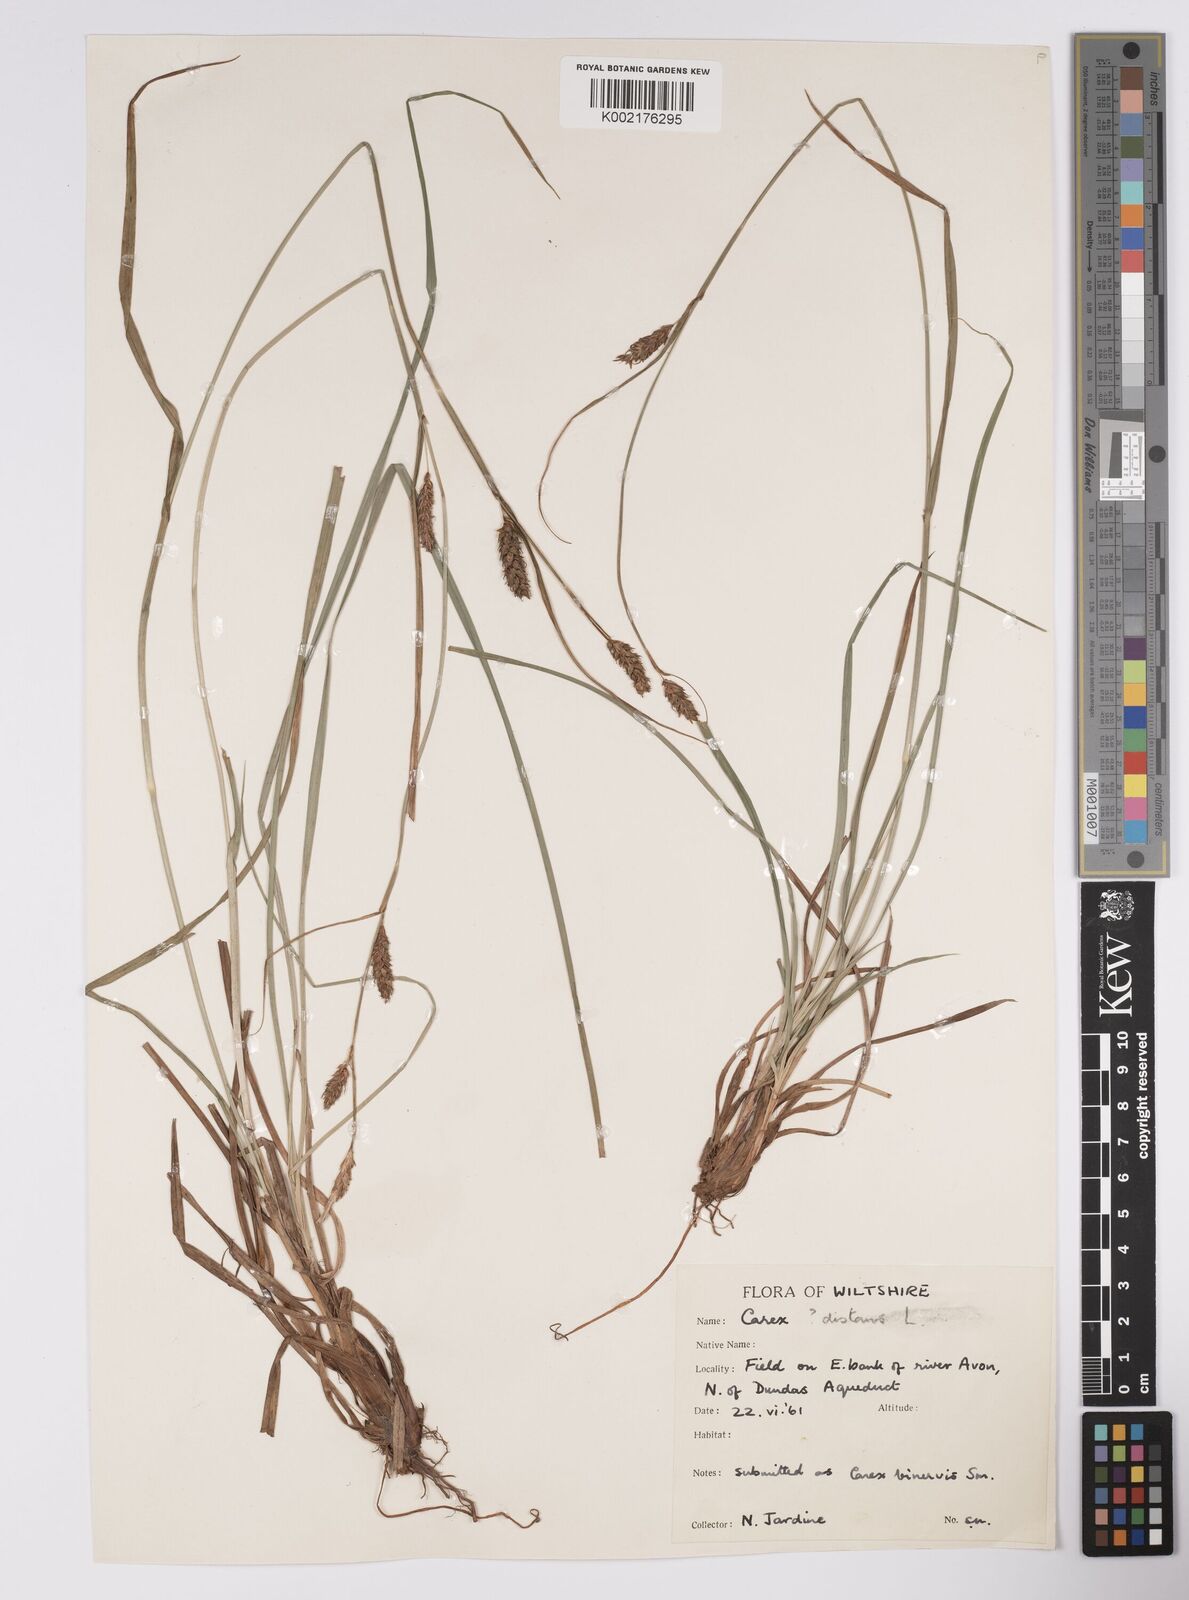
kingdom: Plantae
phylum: Tracheophyta
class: Liliopsida
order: Poales
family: Cyperaceae
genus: Carex
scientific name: Carex distans
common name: Distant sedge
